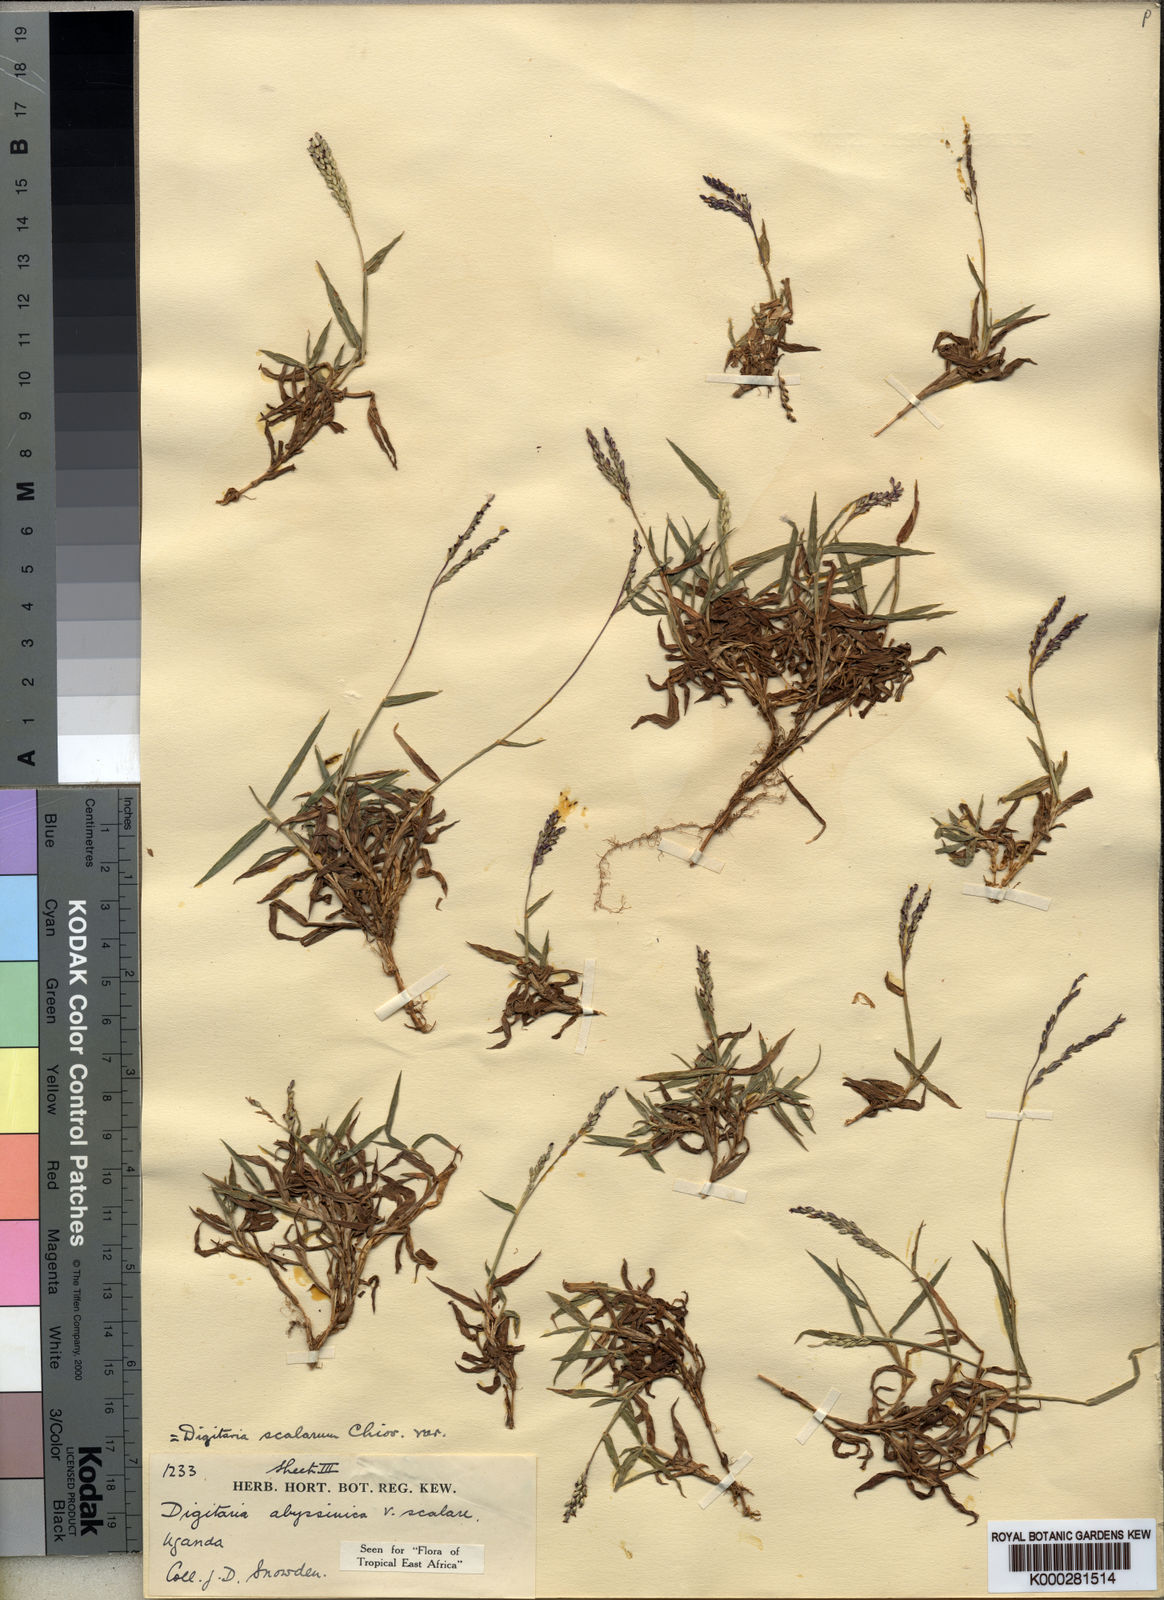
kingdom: Plantae
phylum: Tracheophyta
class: Liliopsida
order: Poales
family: Poaceae
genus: Digitaria
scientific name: Digitaria abyssinica
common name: African couchgrass
